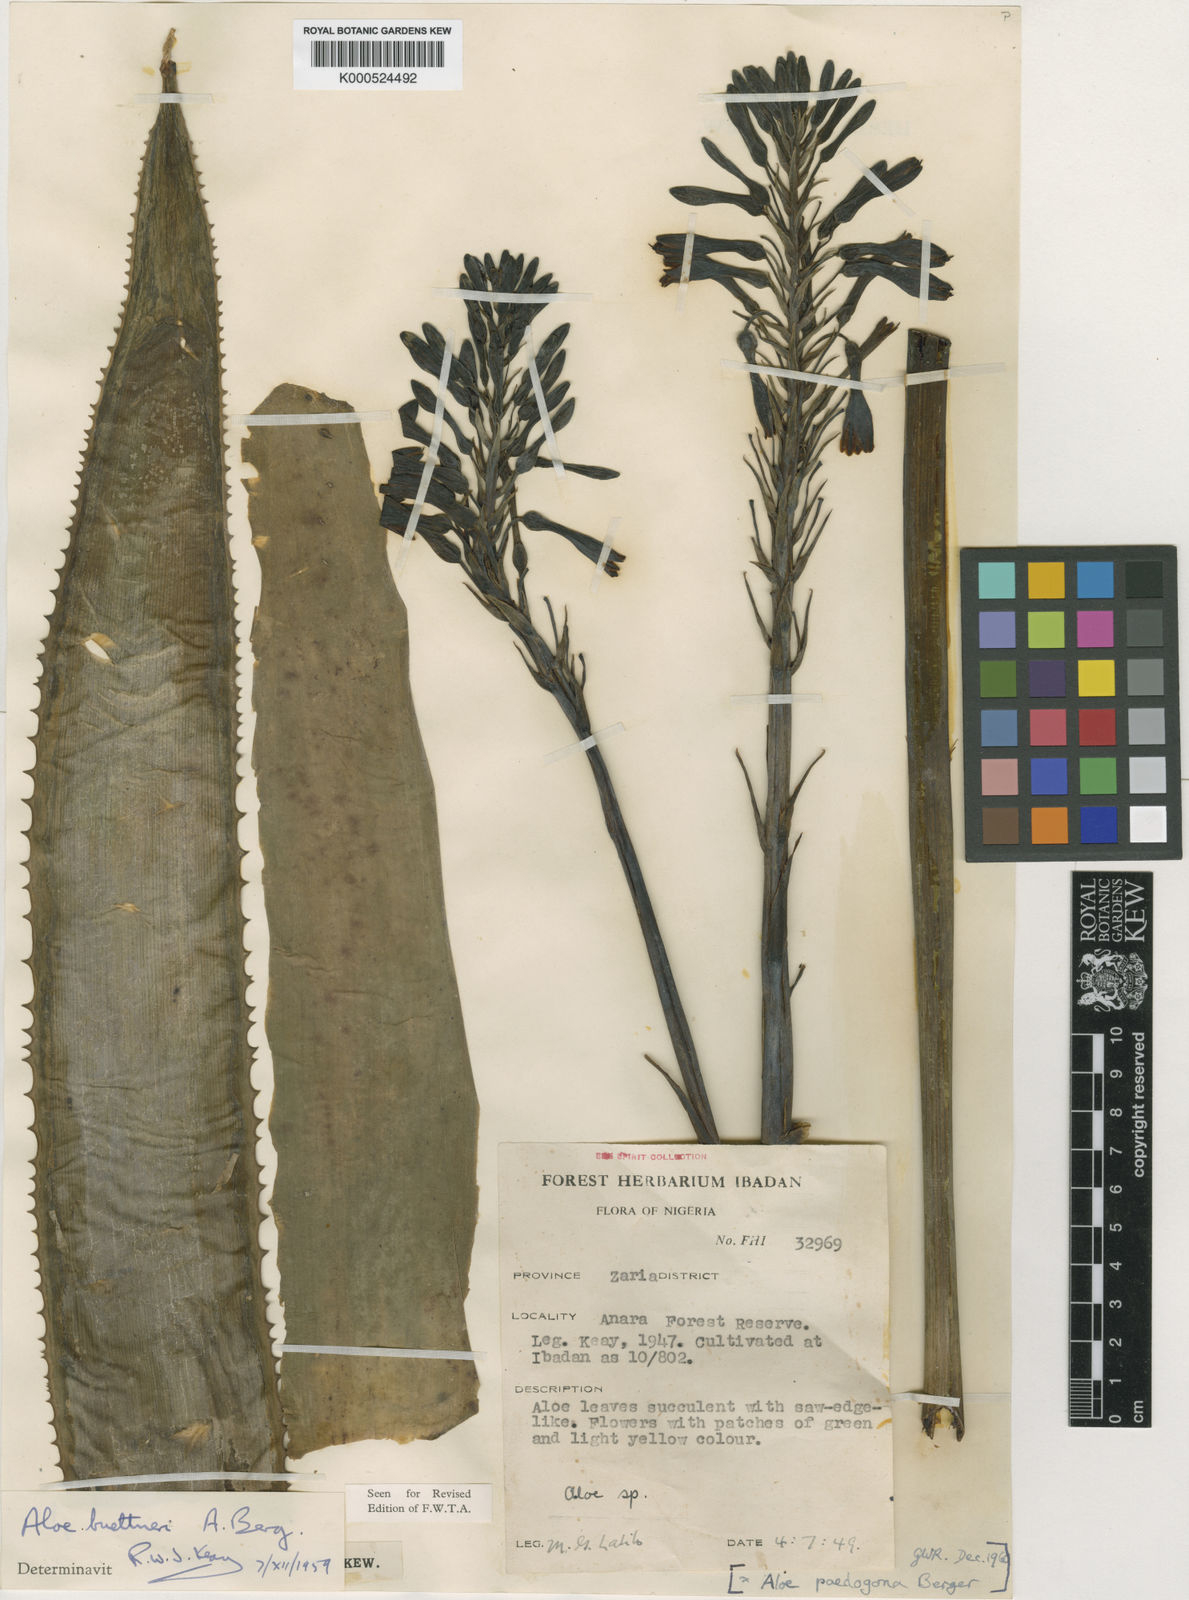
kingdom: Plantae
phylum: Tracheophyta
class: Liliopsida
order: Asparagales
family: Asphodelaceae
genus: Aloe
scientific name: Aloe buettneri
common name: West african aloe
